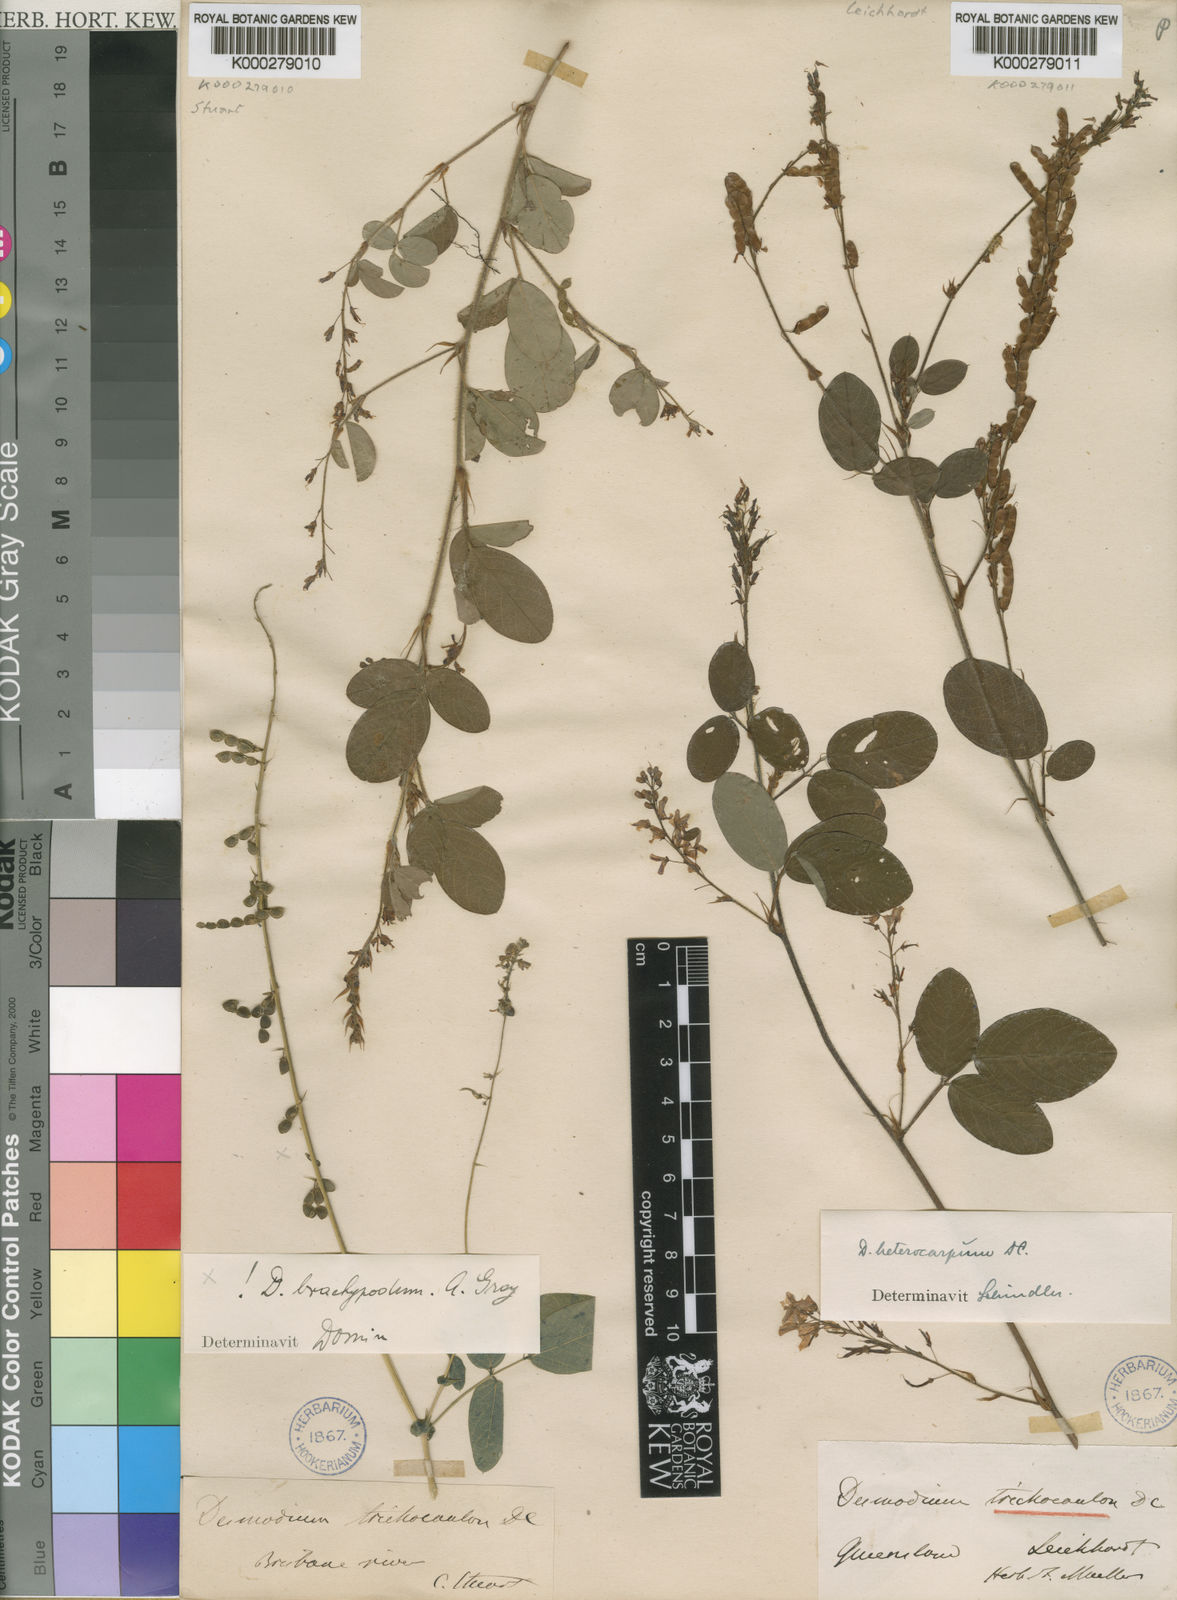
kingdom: Plantae
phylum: Tracheophyta
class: Magnoliopsida
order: Fabales
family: Fabaceae
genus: Grona
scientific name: Grona heterocarpos
